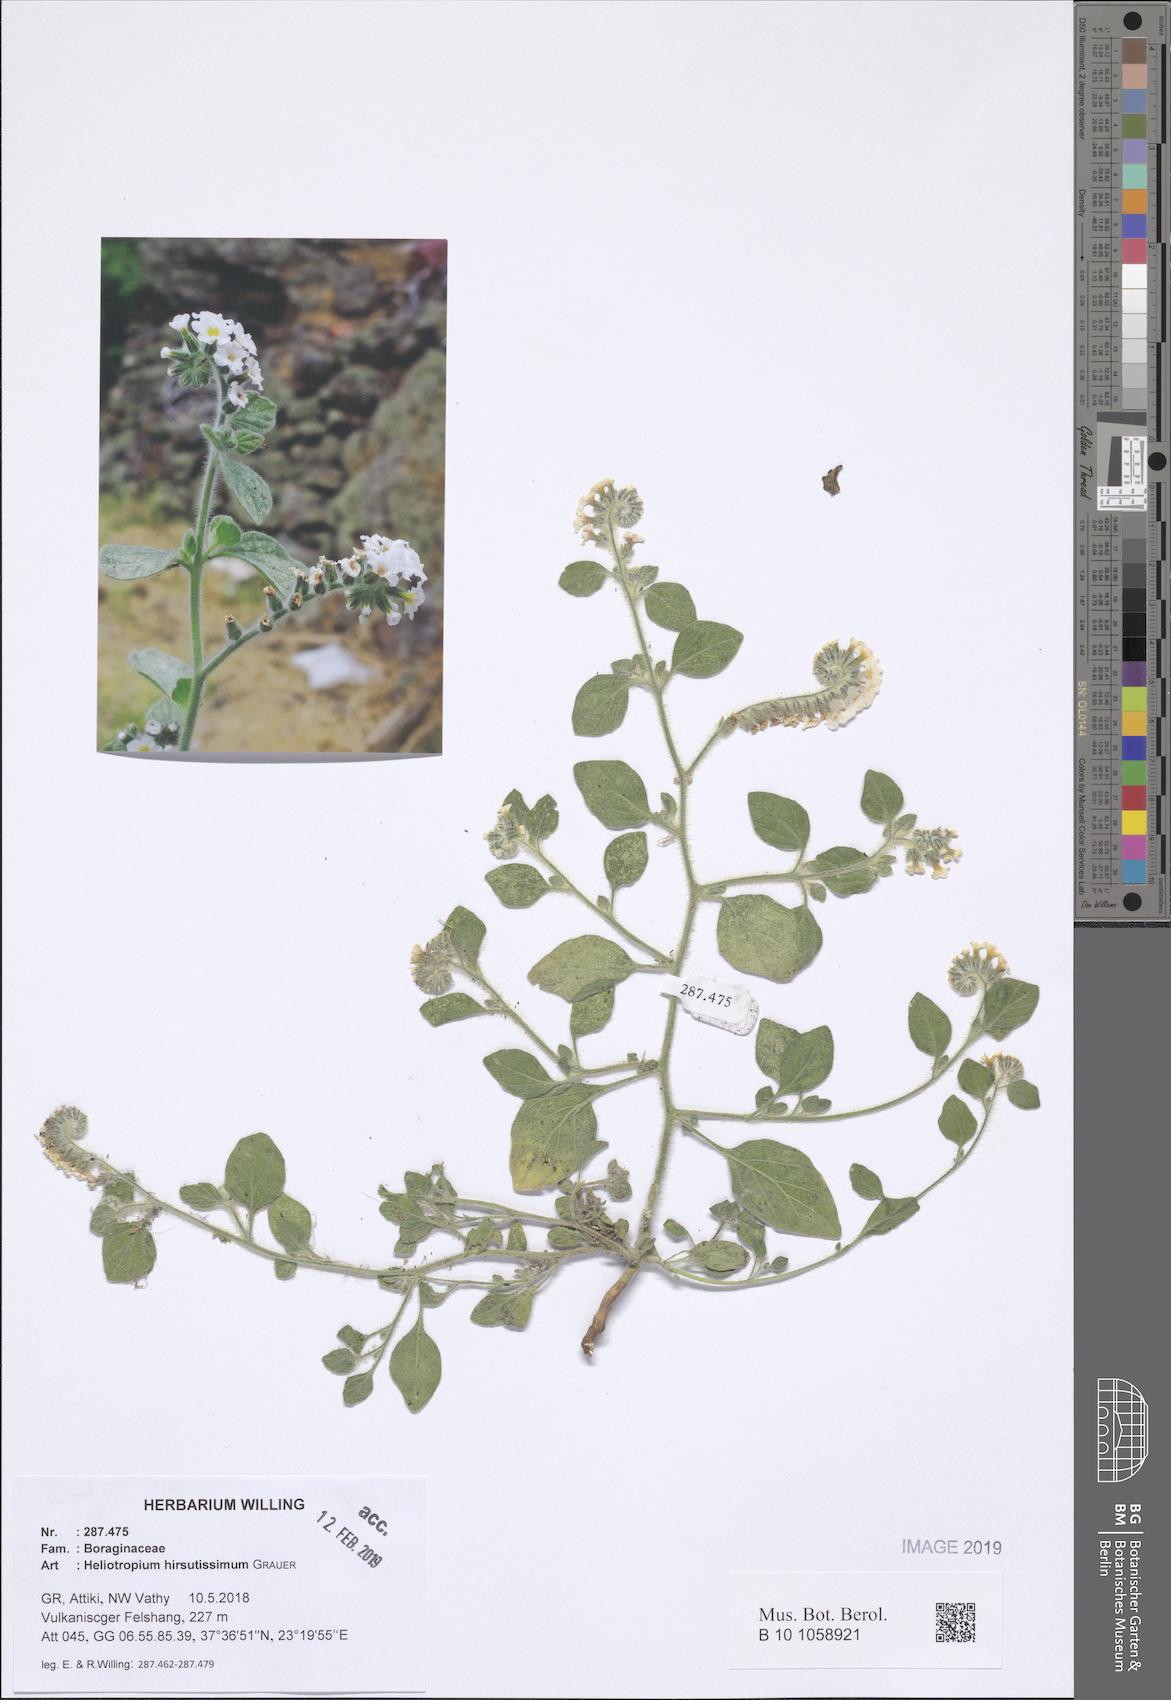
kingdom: Plantae
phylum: Tracheophyta
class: Magnoliopsida
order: Boraginales
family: Heliotropiaceae
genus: Heliotropium
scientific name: Heliotropium hirsutissimum
